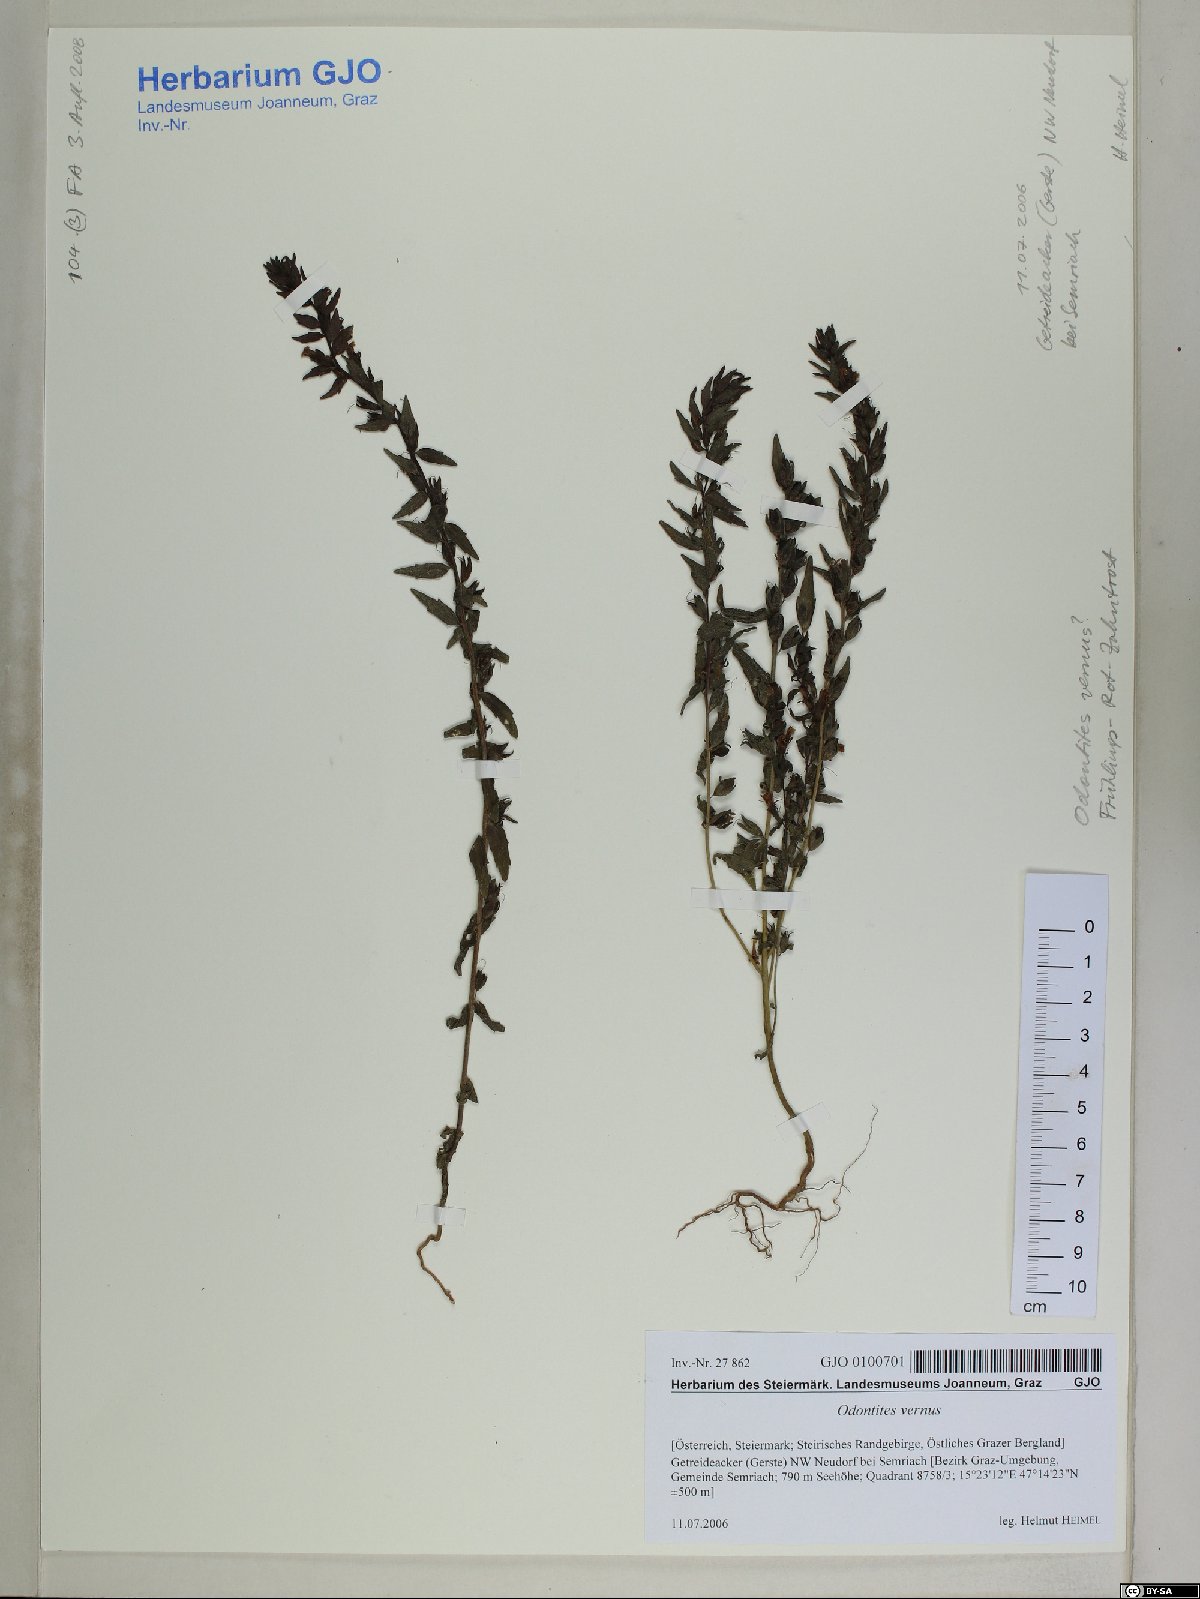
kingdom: Plantae
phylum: Tracheophyta
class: Magnoliopsida
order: Lamiales
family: Orobanchaceae
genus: Odontites
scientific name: Odontites vernus
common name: Red bartsia
